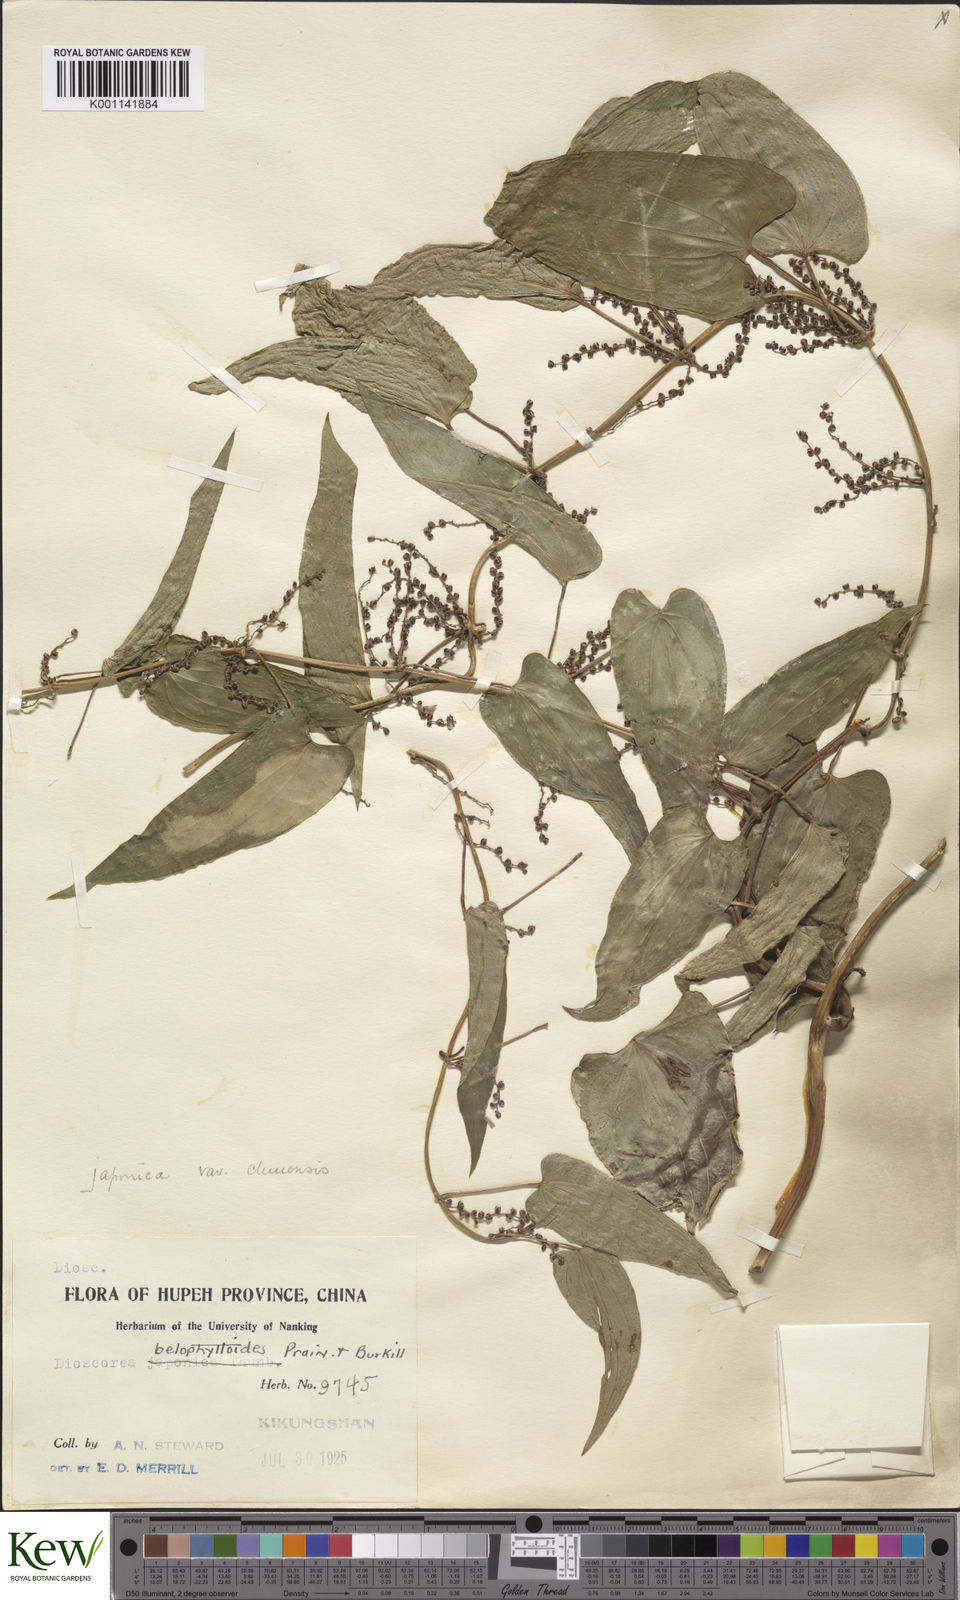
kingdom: Plantae
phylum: Tracheophyta
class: Liliopsida
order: Dioscoreales
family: Dioscoreaceae
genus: Dioscorea
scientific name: Dioscorea japonica
